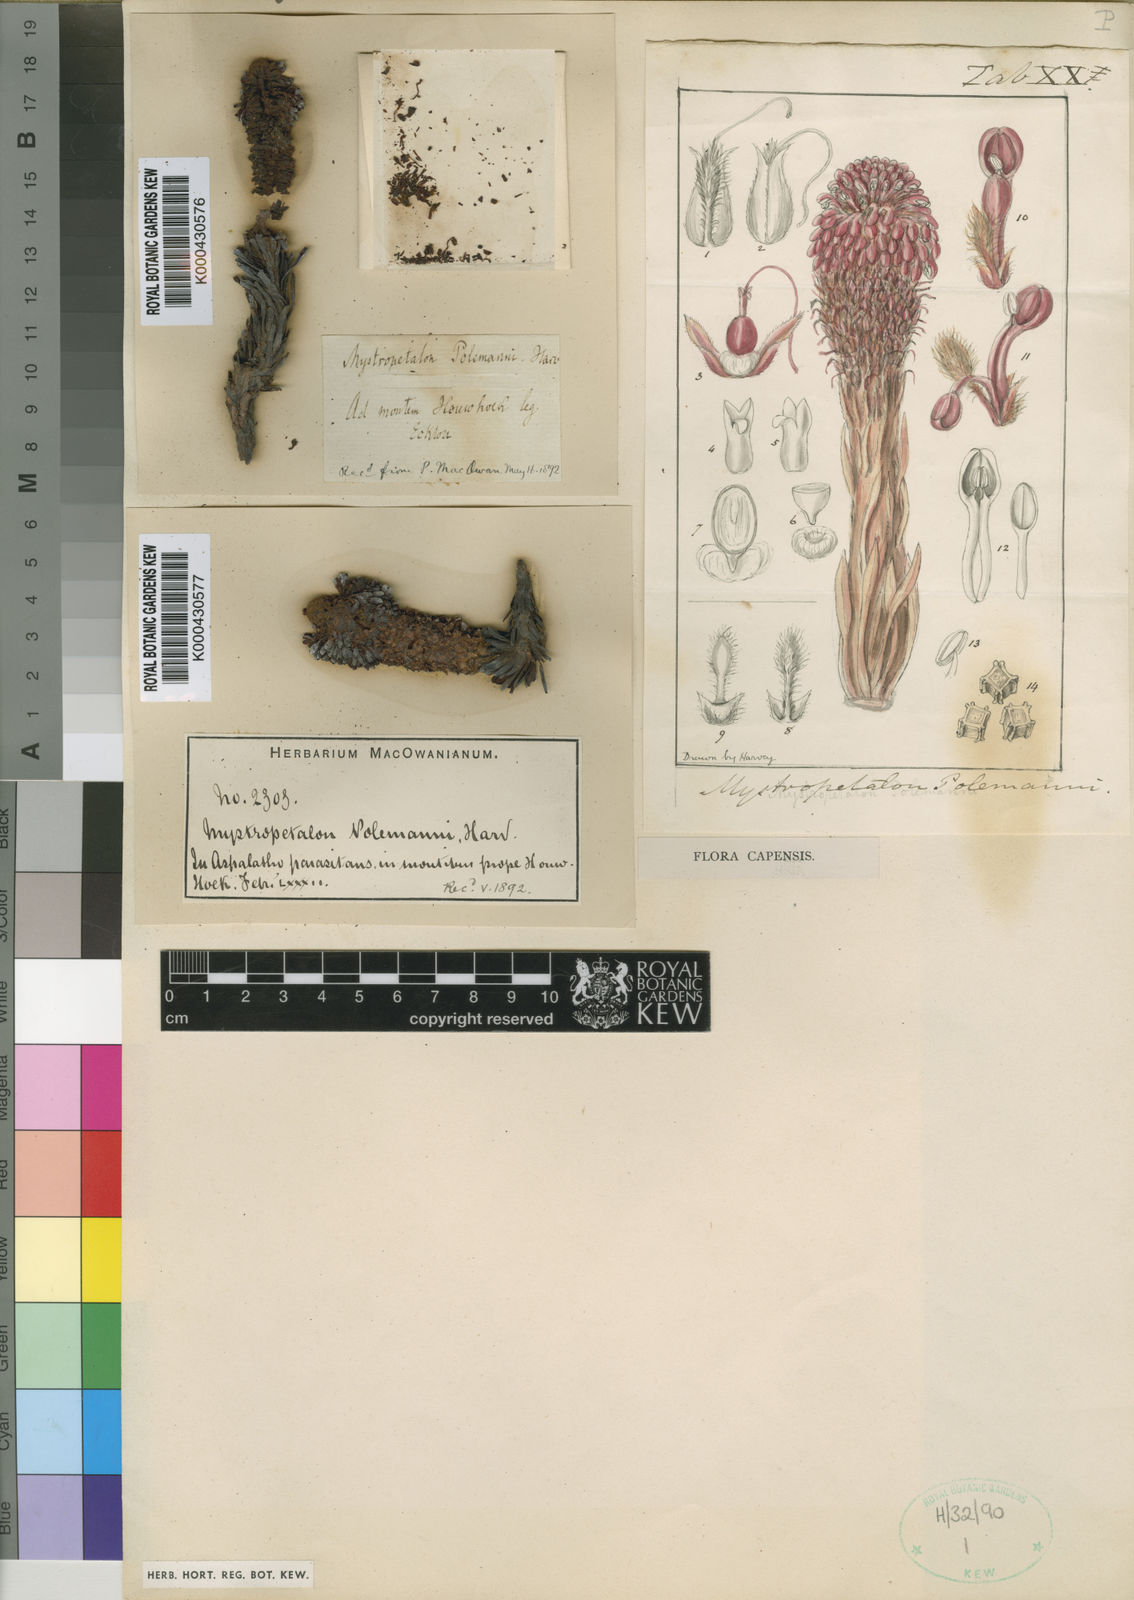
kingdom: Plantae
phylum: Tracheophyta
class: Magnoliopsida
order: Santalales
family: Mystropetalaceae
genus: Mystropetalon
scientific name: Mystropetalon thomii
